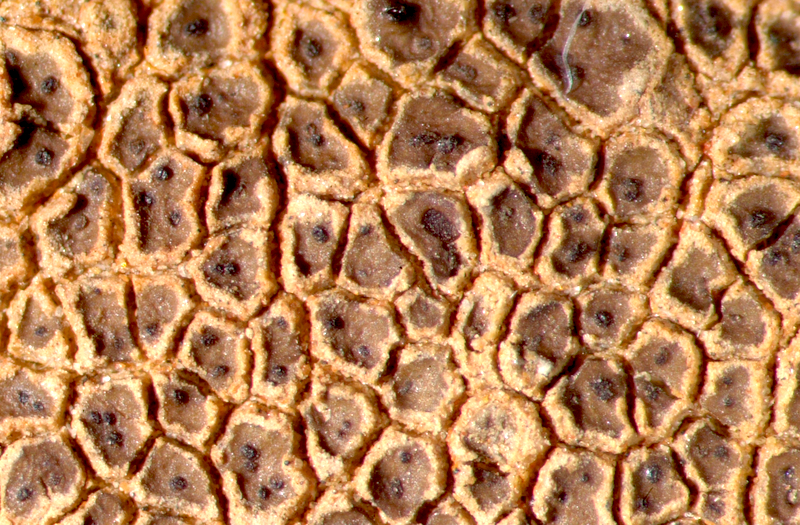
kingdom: Fungi
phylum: Ascomycota
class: Lecanoromycetes
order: Acarosporales
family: Acarosporaceae
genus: Acarospora
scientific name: Acarospora strigata
